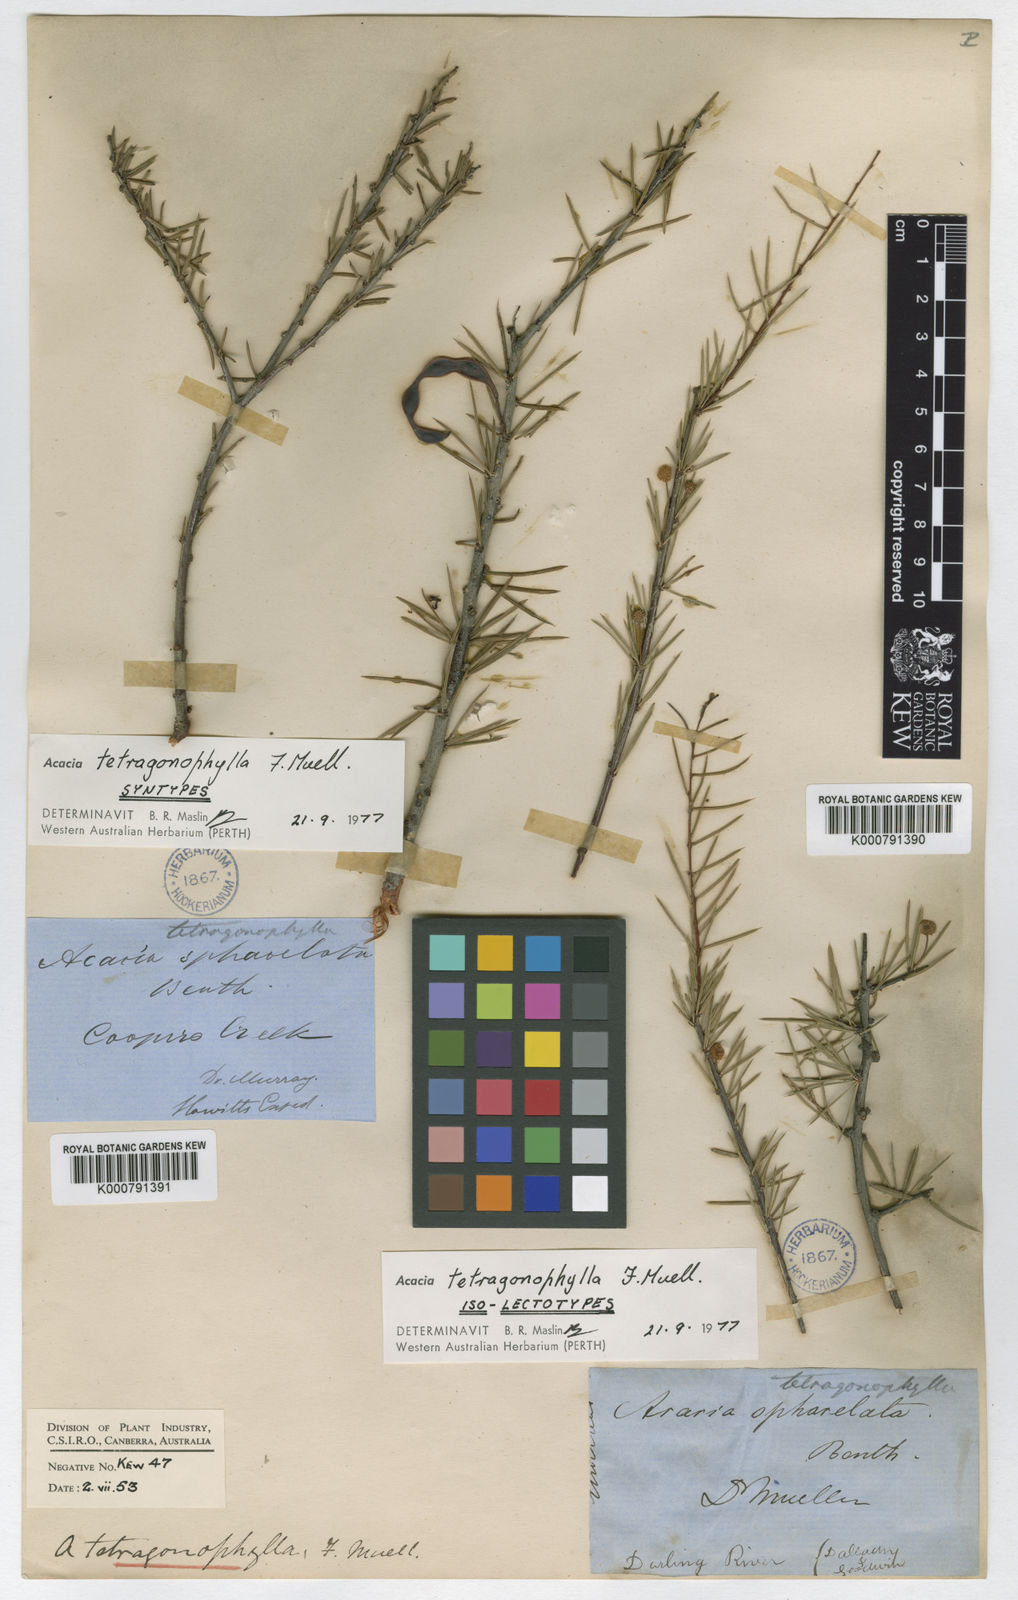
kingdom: Plantae
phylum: Tracheophyta
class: Magnoliopsida
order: Fabales
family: Fabaceae
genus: Acacia
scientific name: Acacia tetragonophylla
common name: Dead finish
